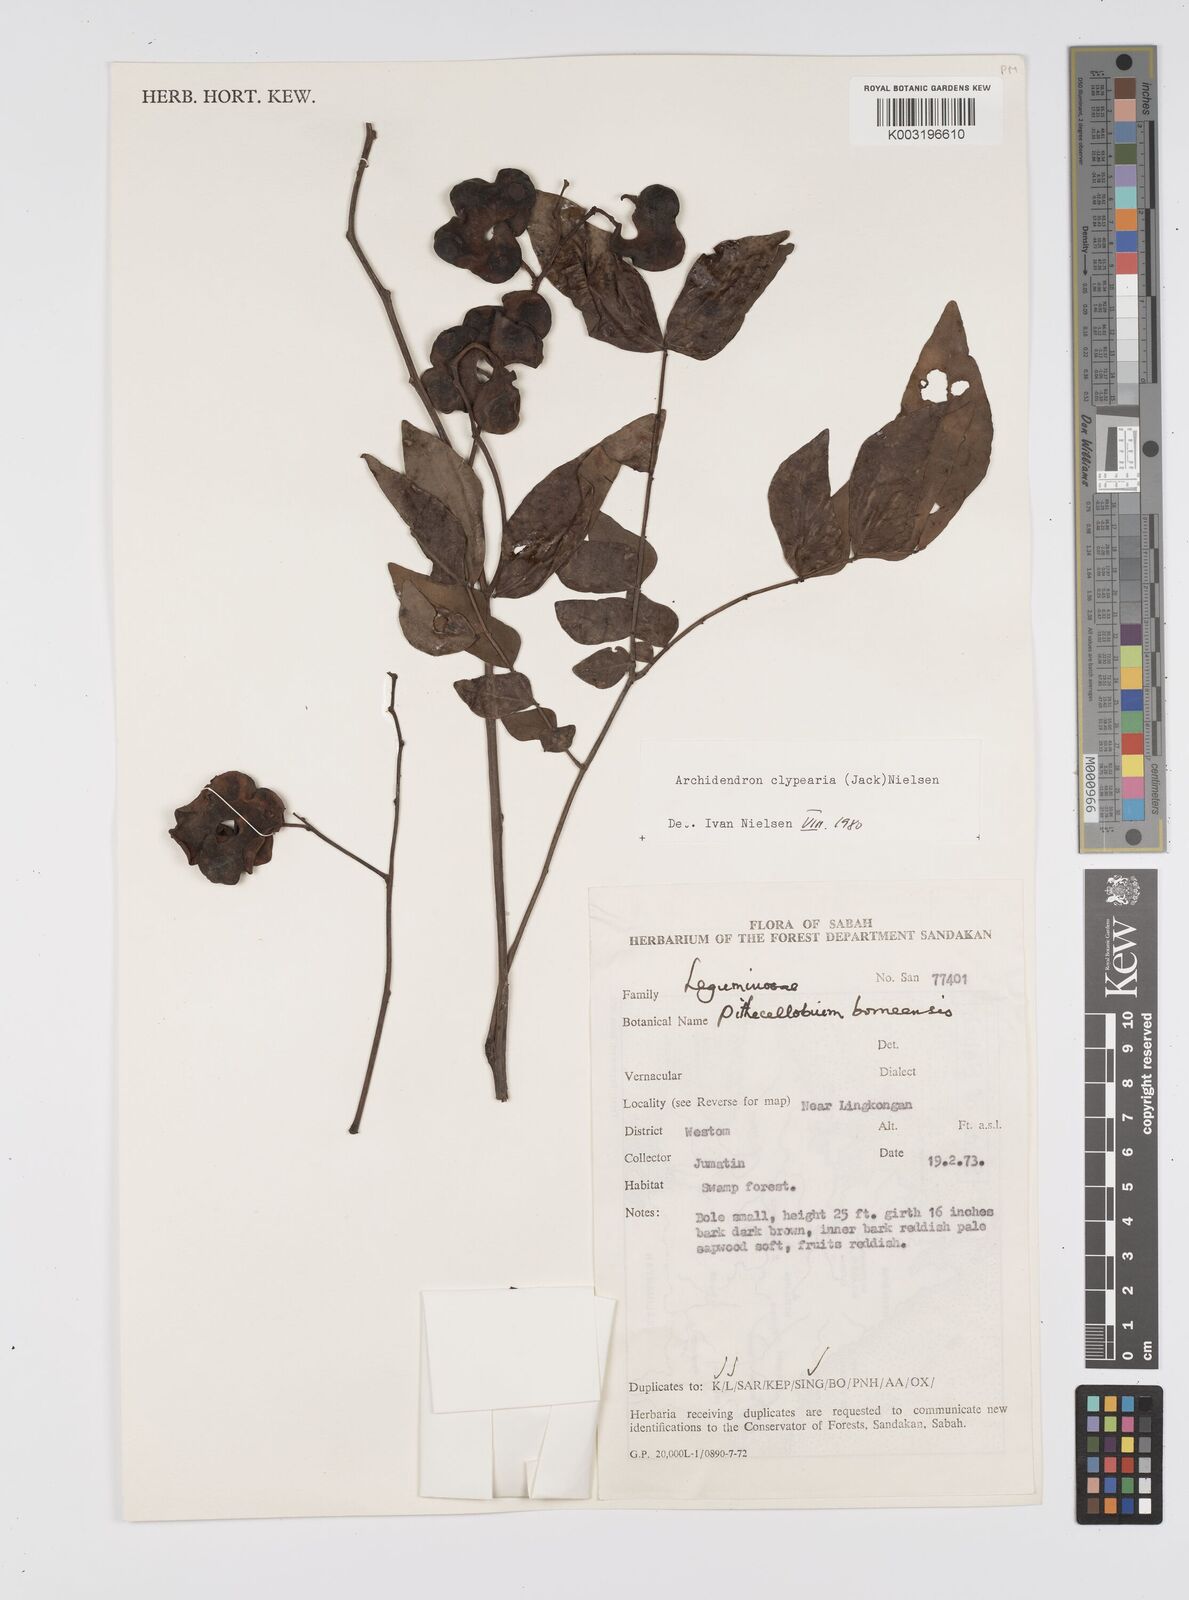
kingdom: Plantae
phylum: Tracheophyta
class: Magnoliopsida
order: Fabales
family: Fabaceae
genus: Archidendron
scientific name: Archidendron clypearia
